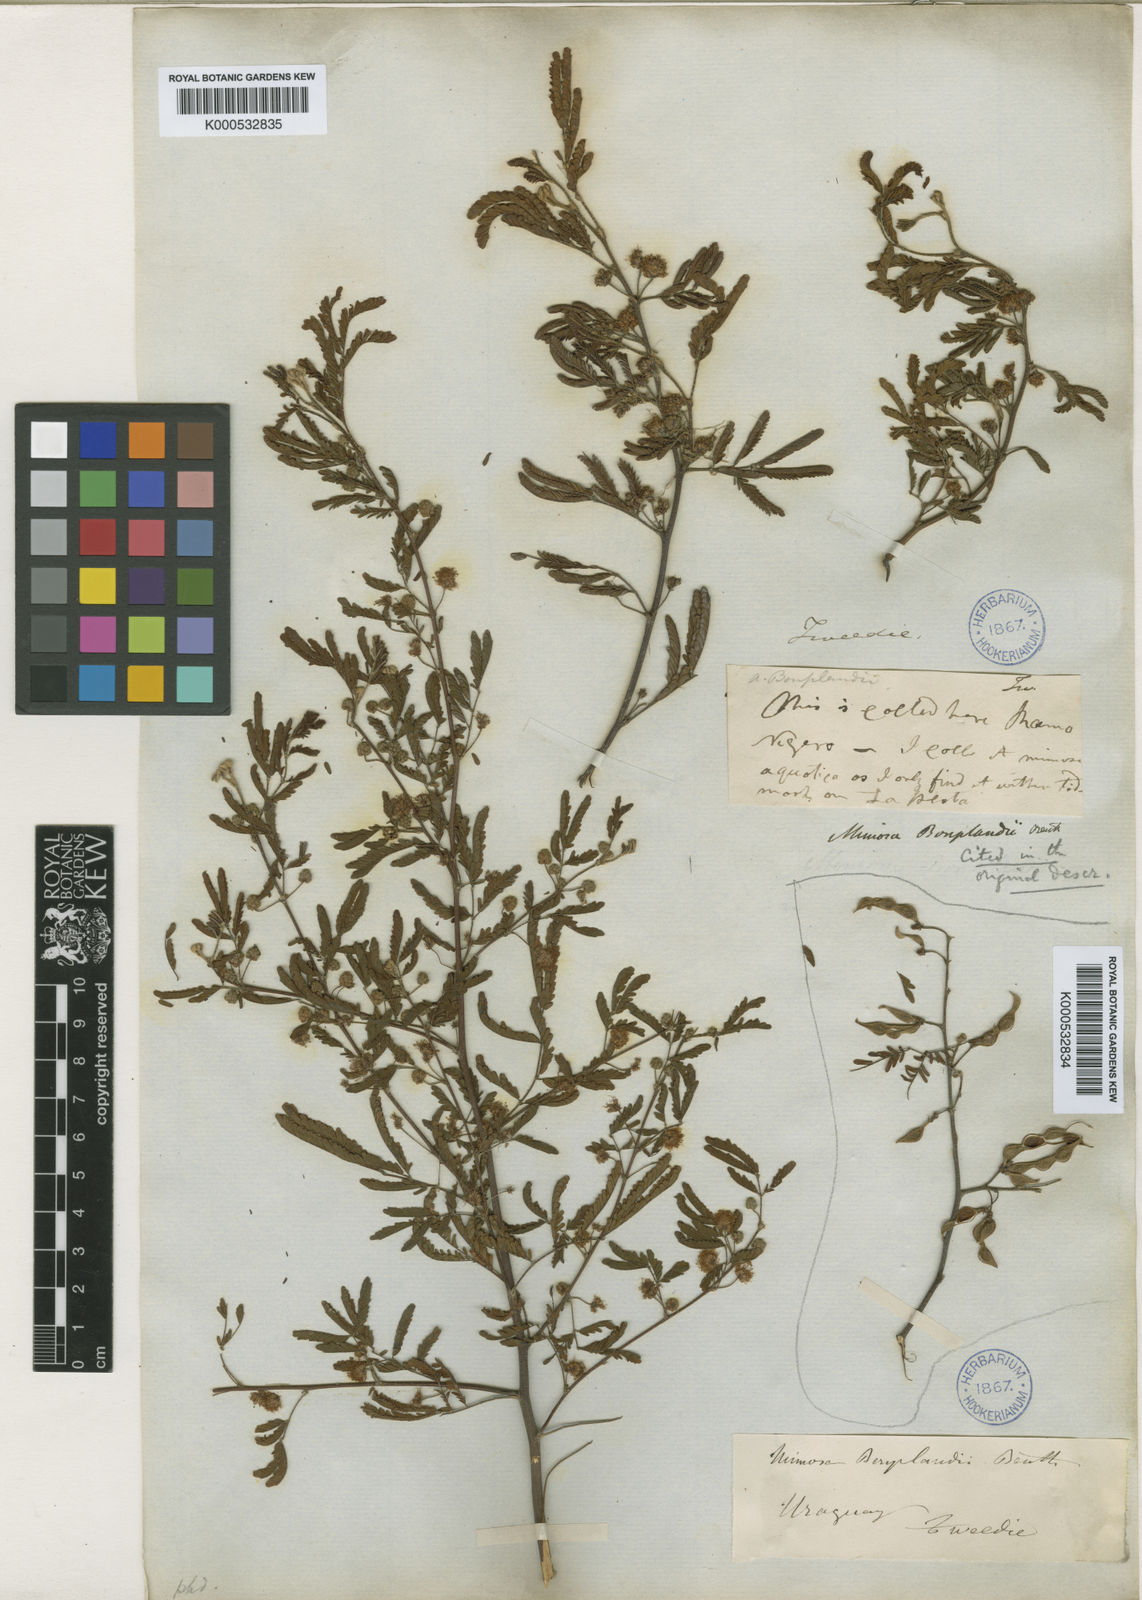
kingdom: Plantae
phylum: Tracheophyta
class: Magnoliopsida
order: Fabales
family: Fabaceae
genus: Mimosa
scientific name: Mimosa bonplandii
